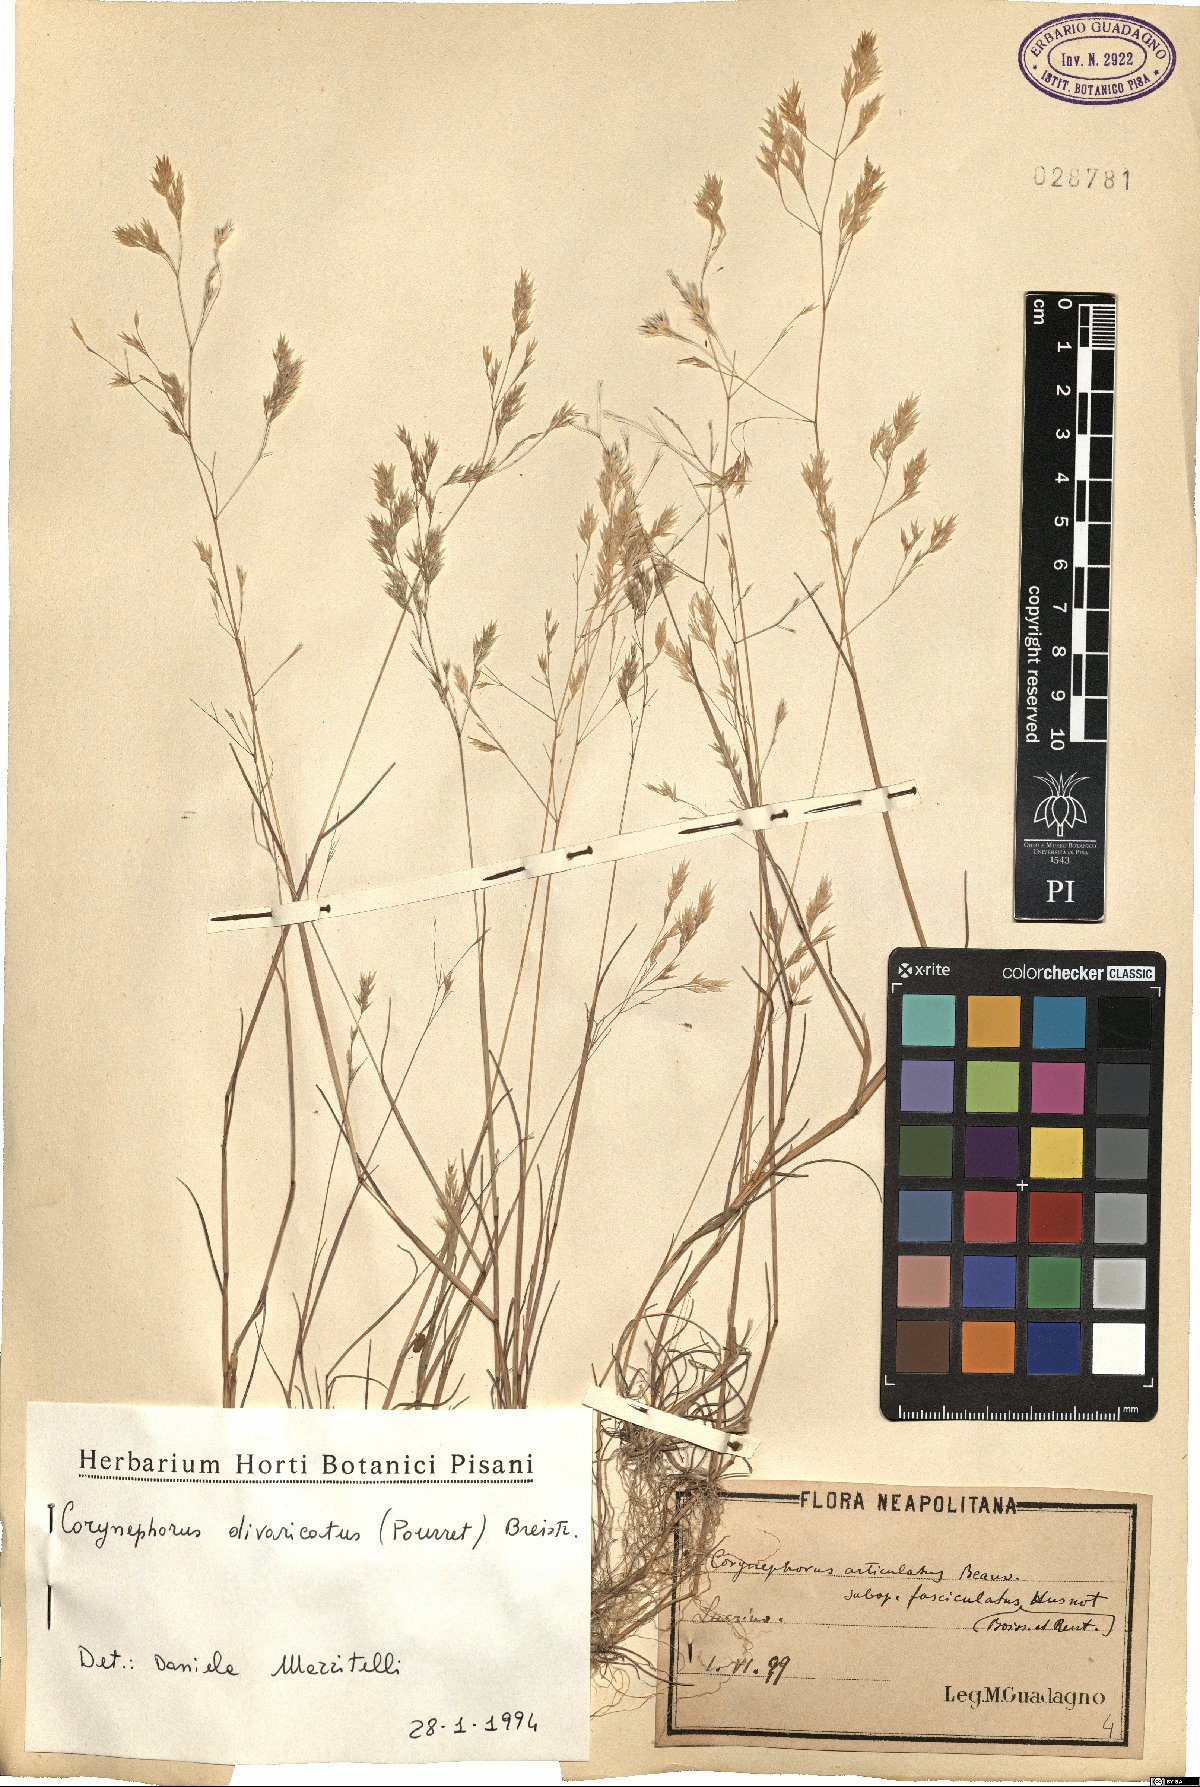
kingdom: Plantae
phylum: Tracheophyta
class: Liliopsida
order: Poales
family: Poaceae
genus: Corynephorus
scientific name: Corynephorus divaricatus
